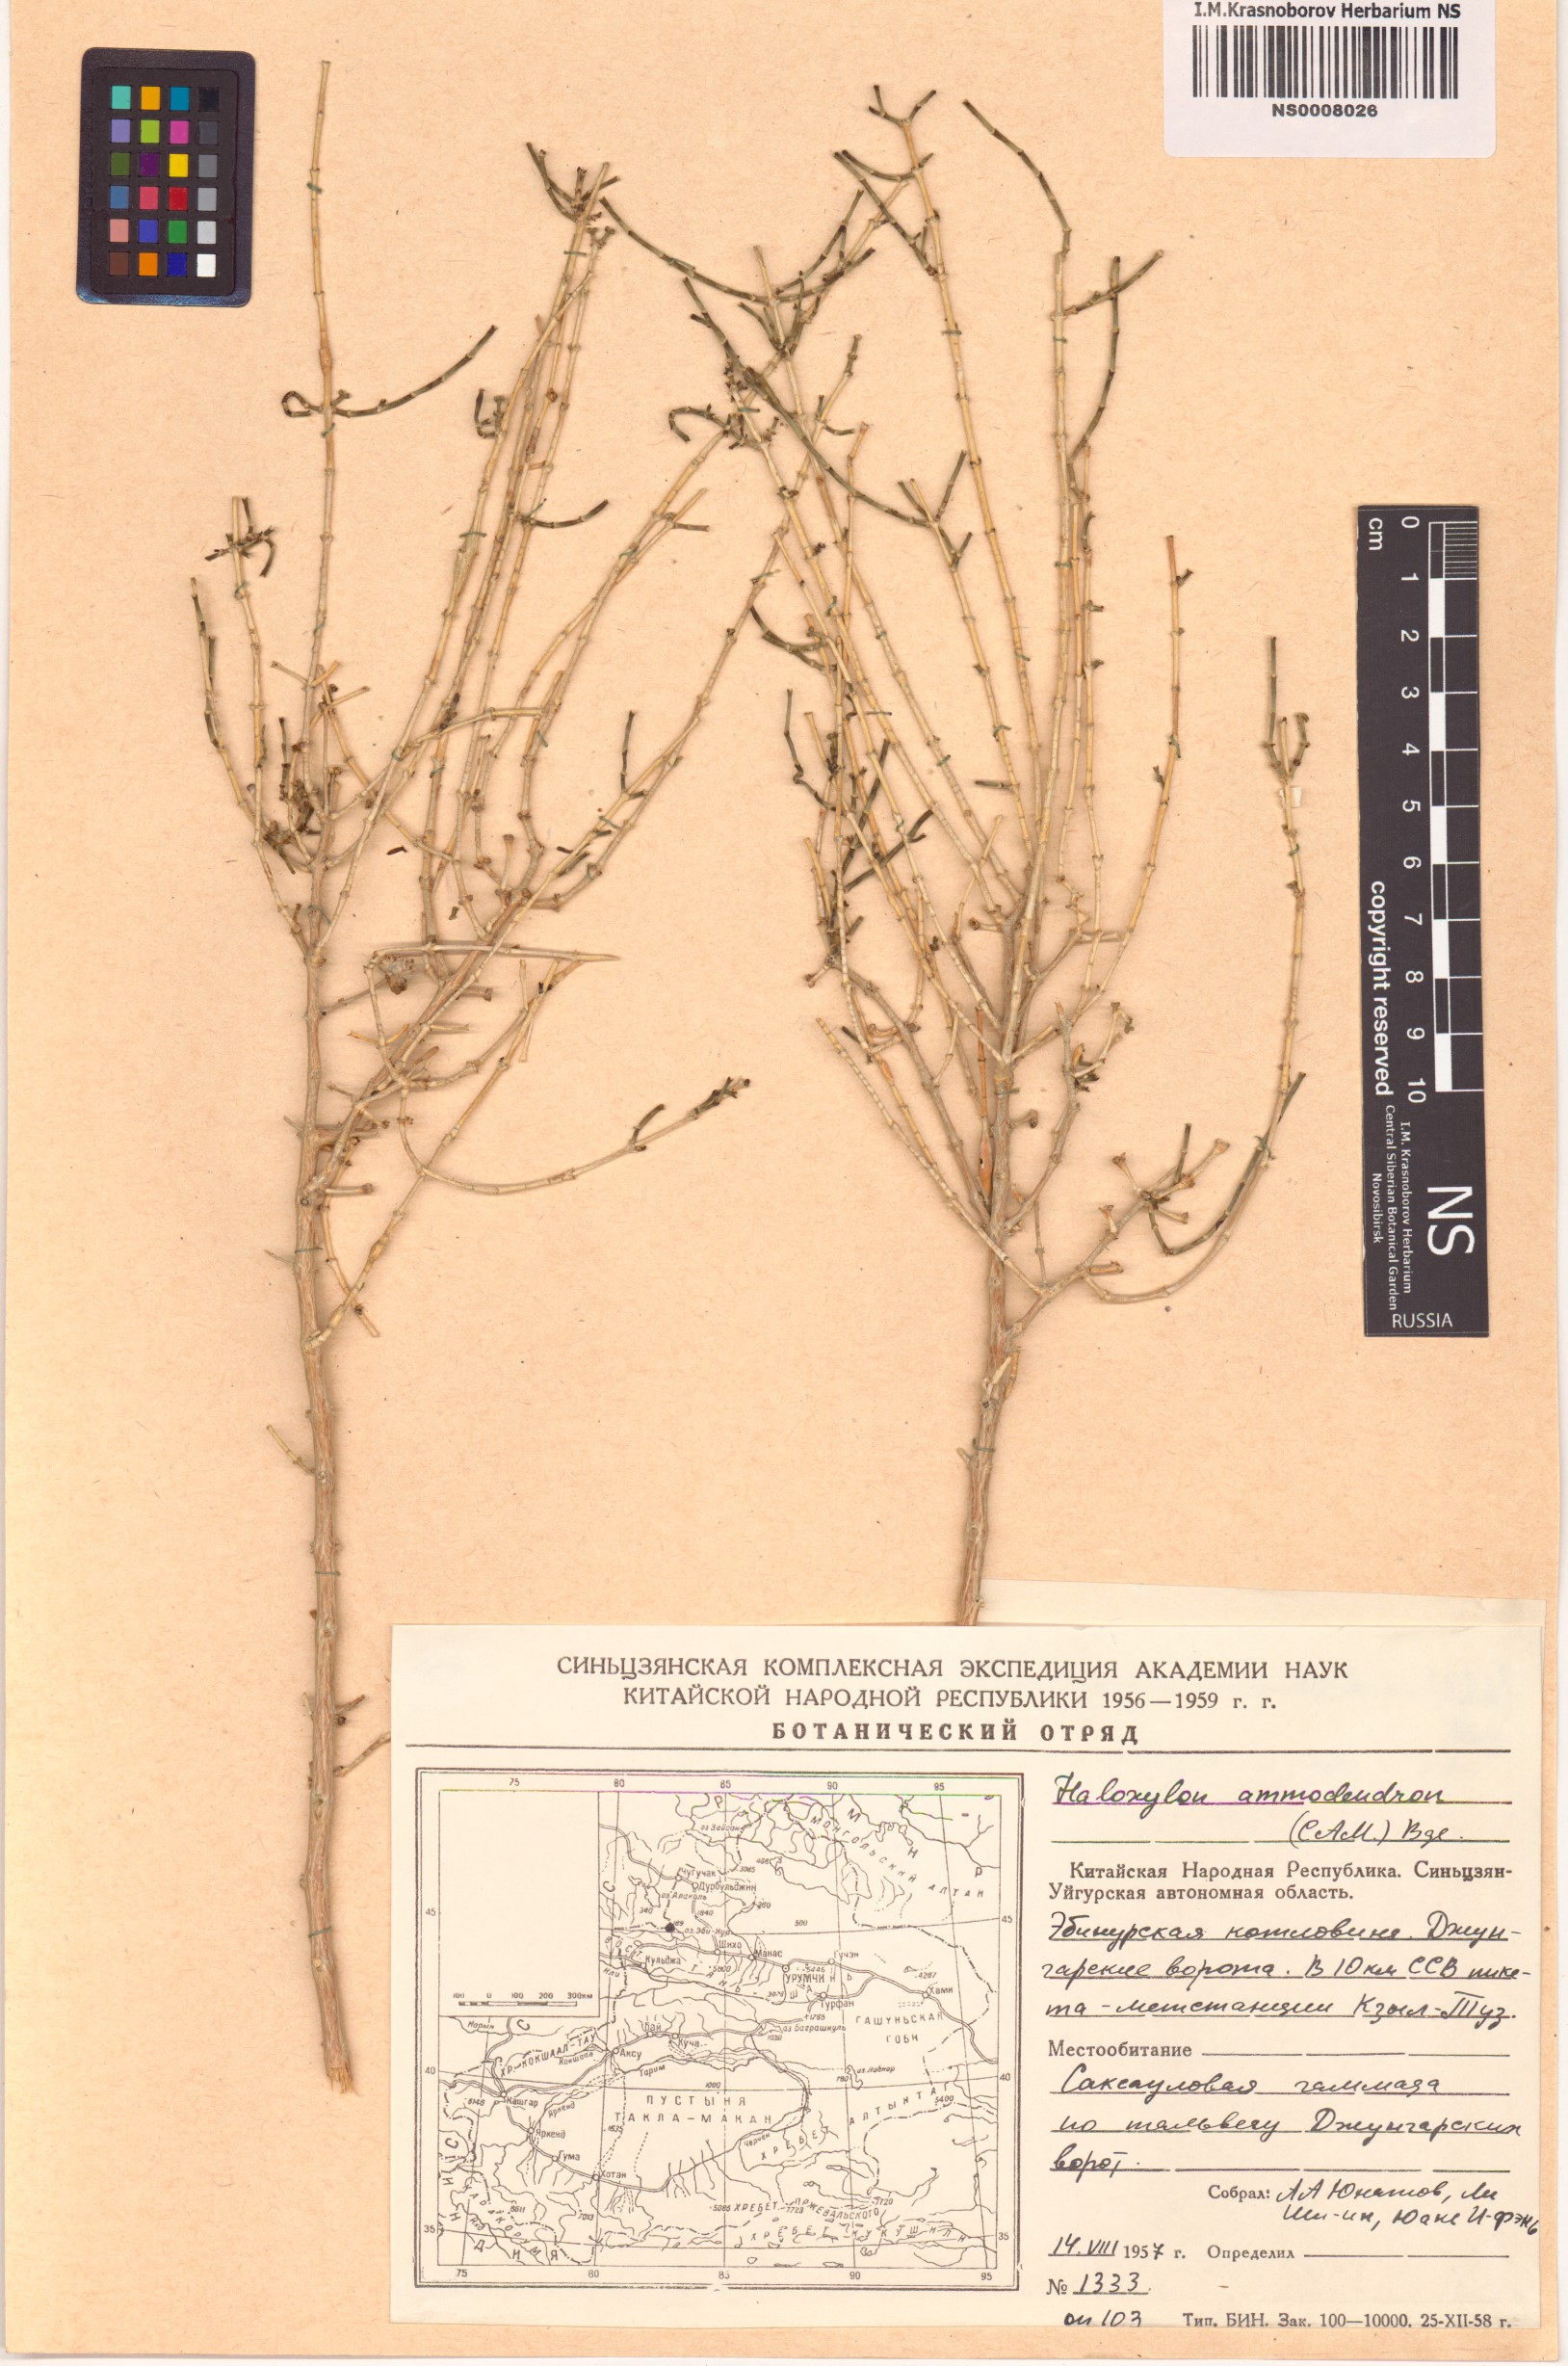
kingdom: Plantae
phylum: Tracheophyta
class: Magnoliopsida
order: Caryophyllales
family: Amaranthaceae
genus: Haloxylon
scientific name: Haloxylon ammodendron
